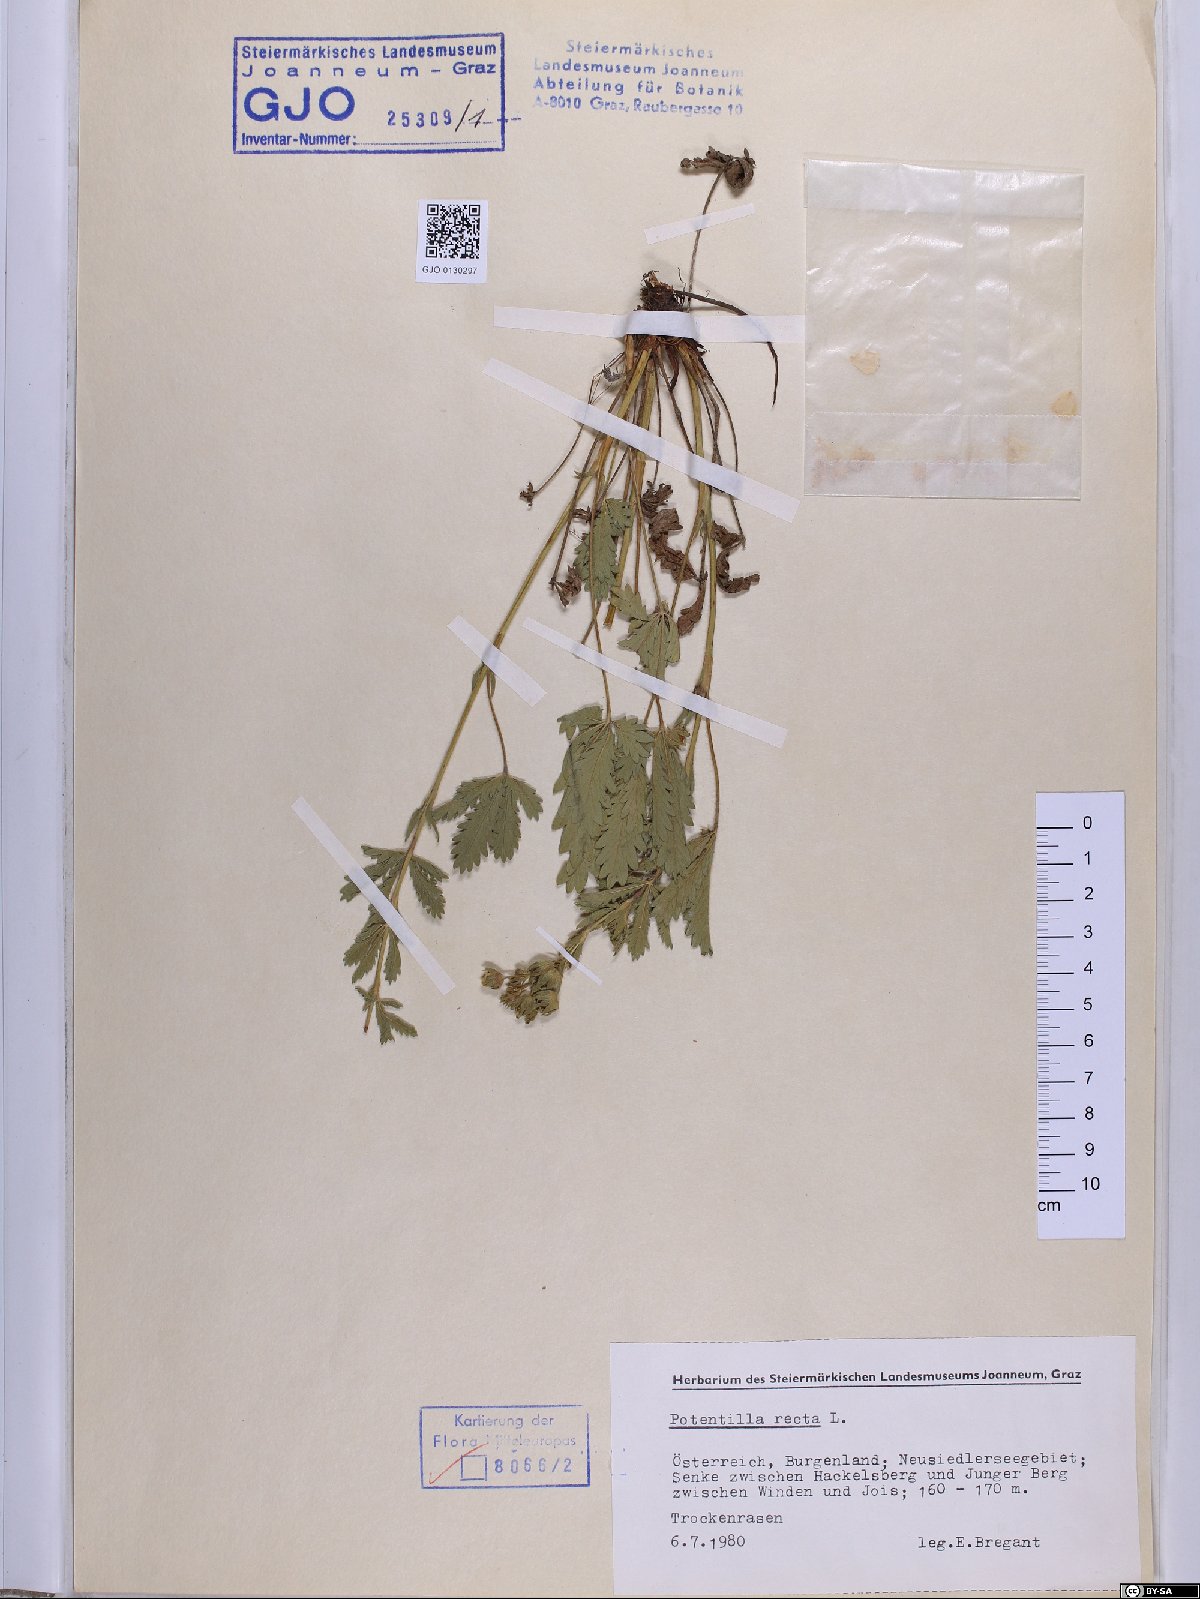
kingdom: Plantae
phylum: Tracheophyta
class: Magnoliopsida
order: Rosales
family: Rosaceae
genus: Potentilla
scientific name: Potentilla recta
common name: Sulphur cinquefoil
